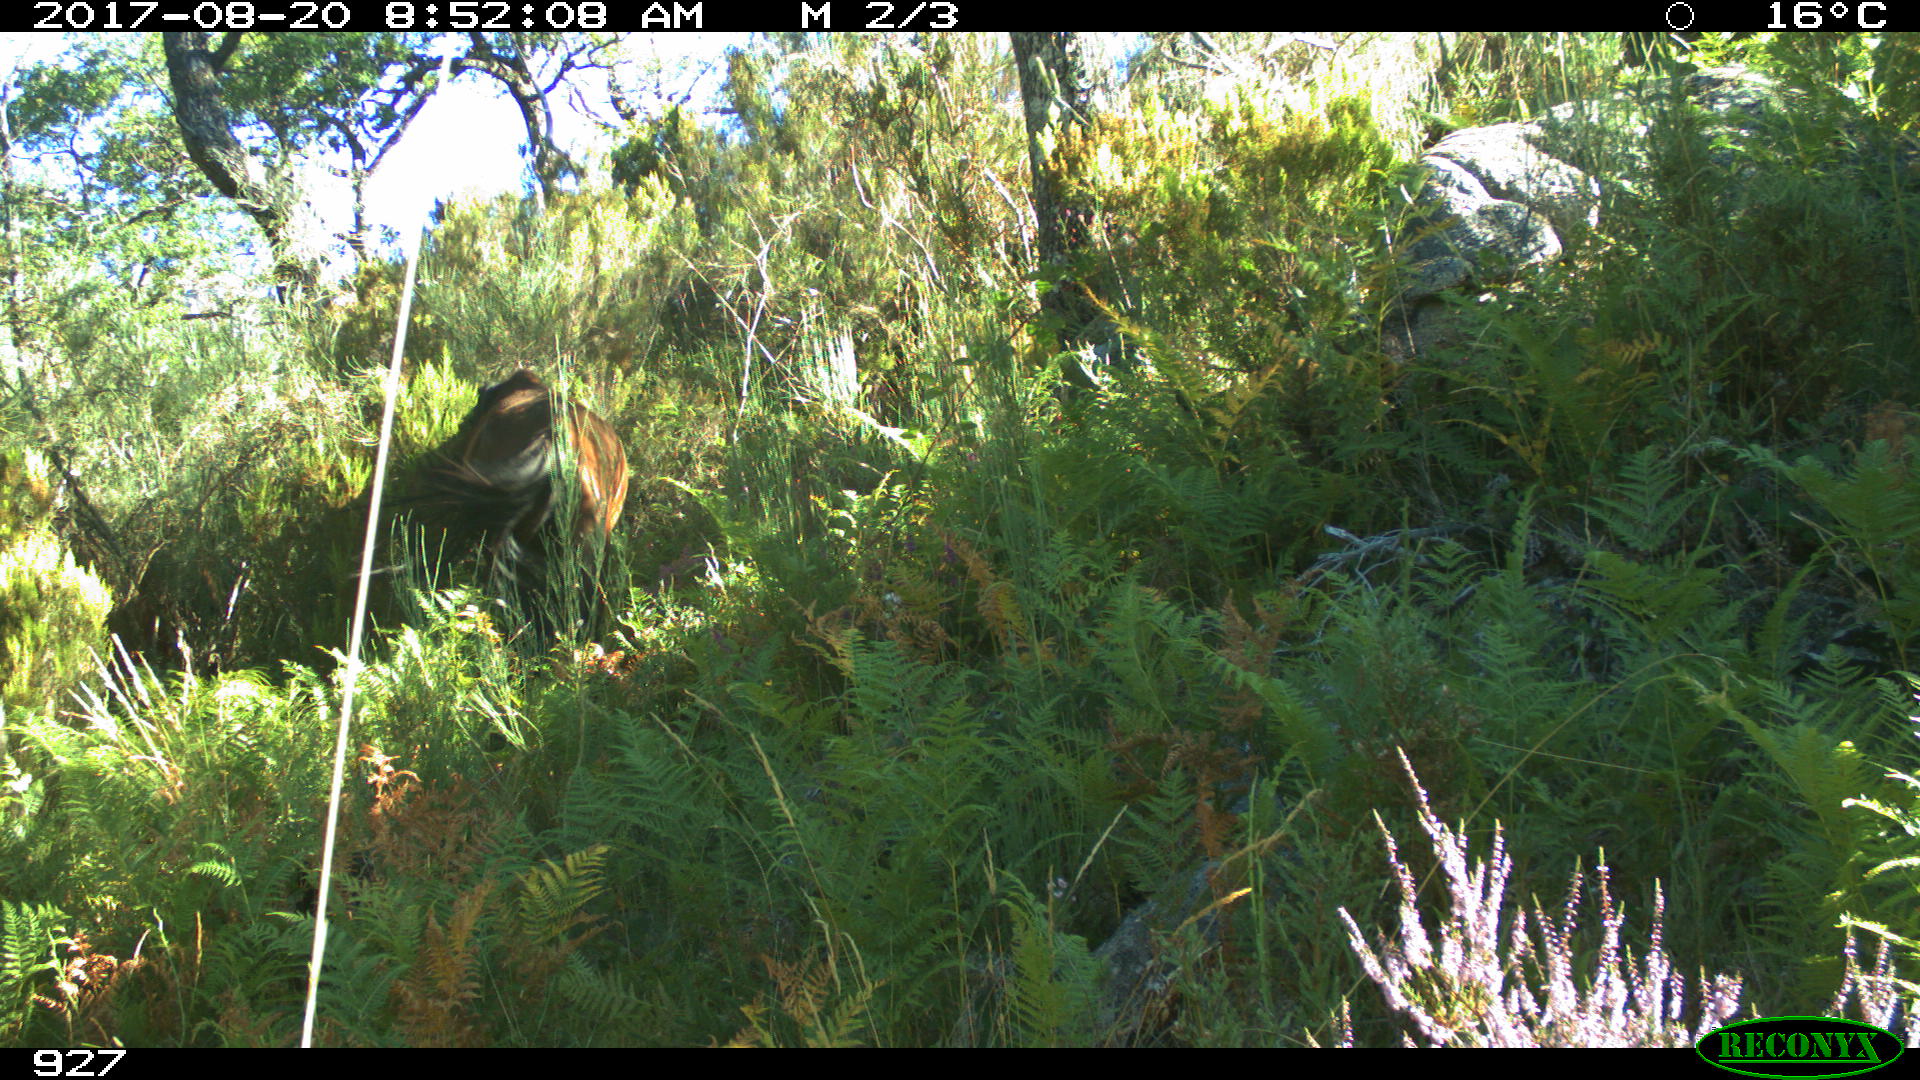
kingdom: Animalia
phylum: Chordata
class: Mammalia
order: Perissodactyla
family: Equidae
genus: Equus
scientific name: Equus caballus
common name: Horse
